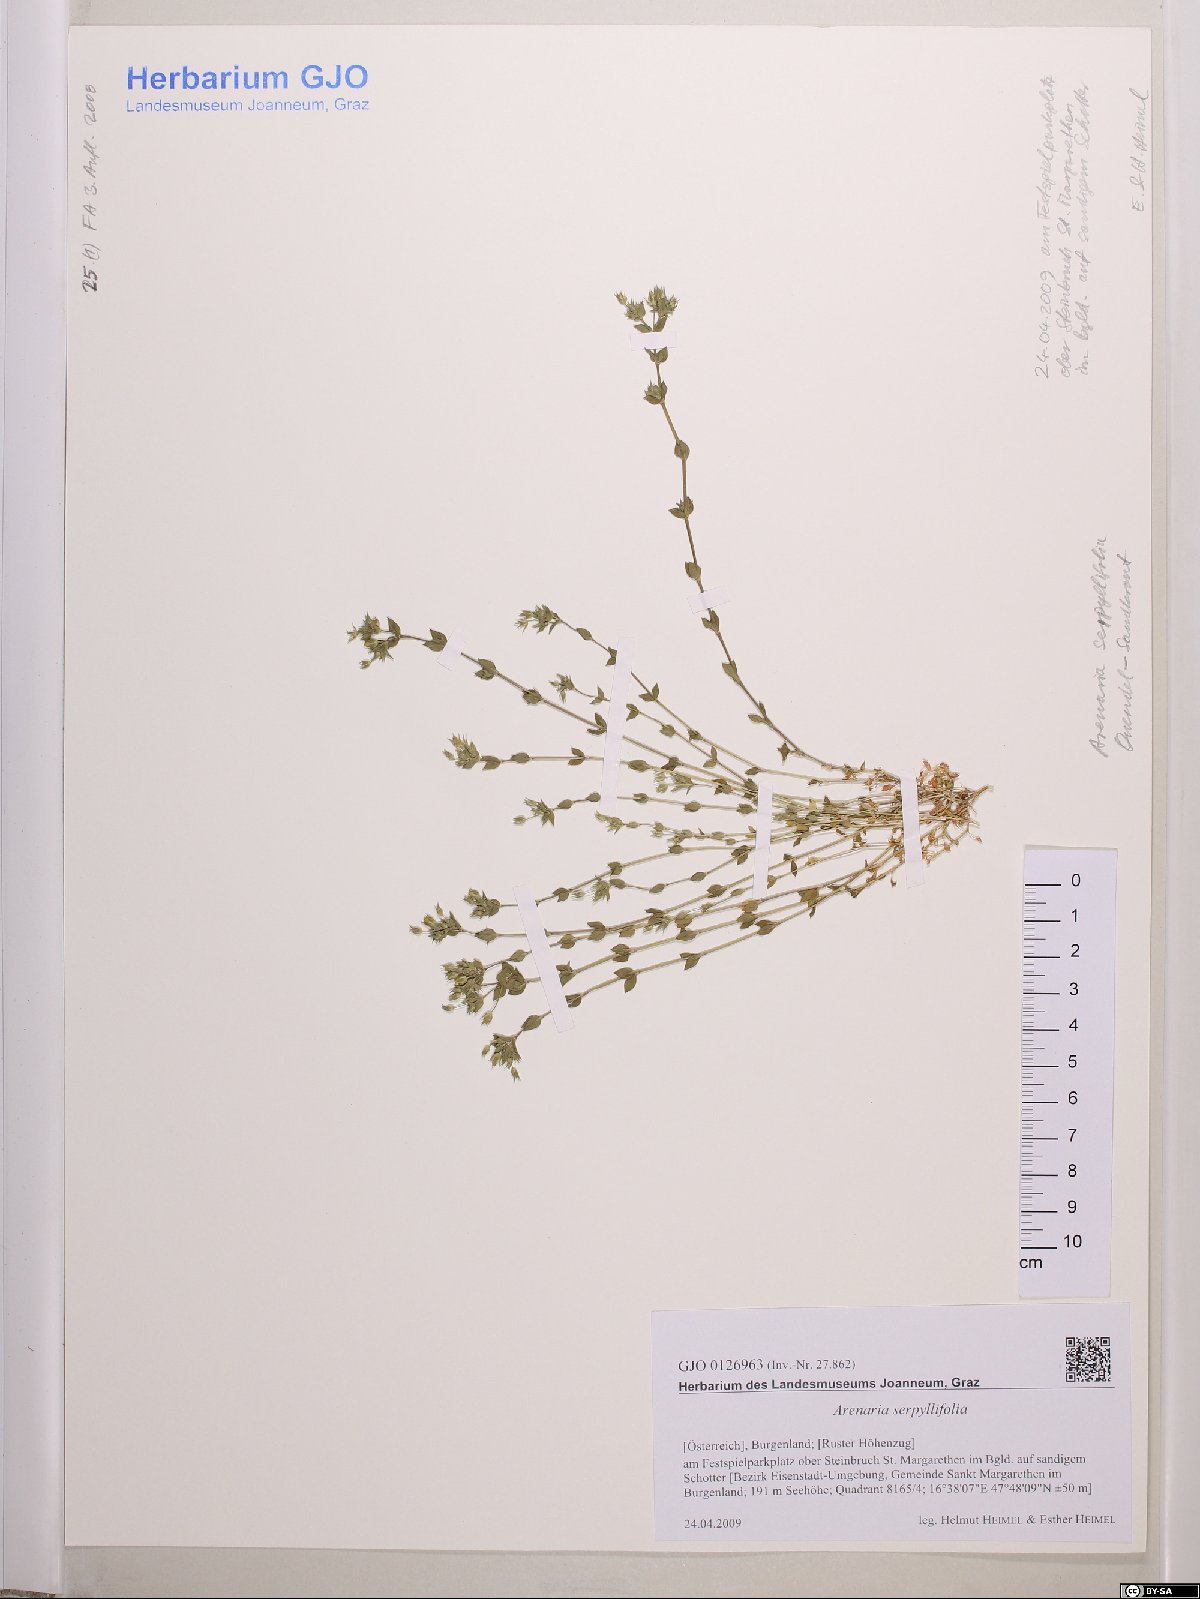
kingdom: Plantae
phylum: Tracheophyta
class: Magnoliopsida
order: Caryophyllales
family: Caryophyllaceae
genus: Arenaria
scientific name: Arenaria serpyllifolia
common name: Thyme-leaved sandwort
